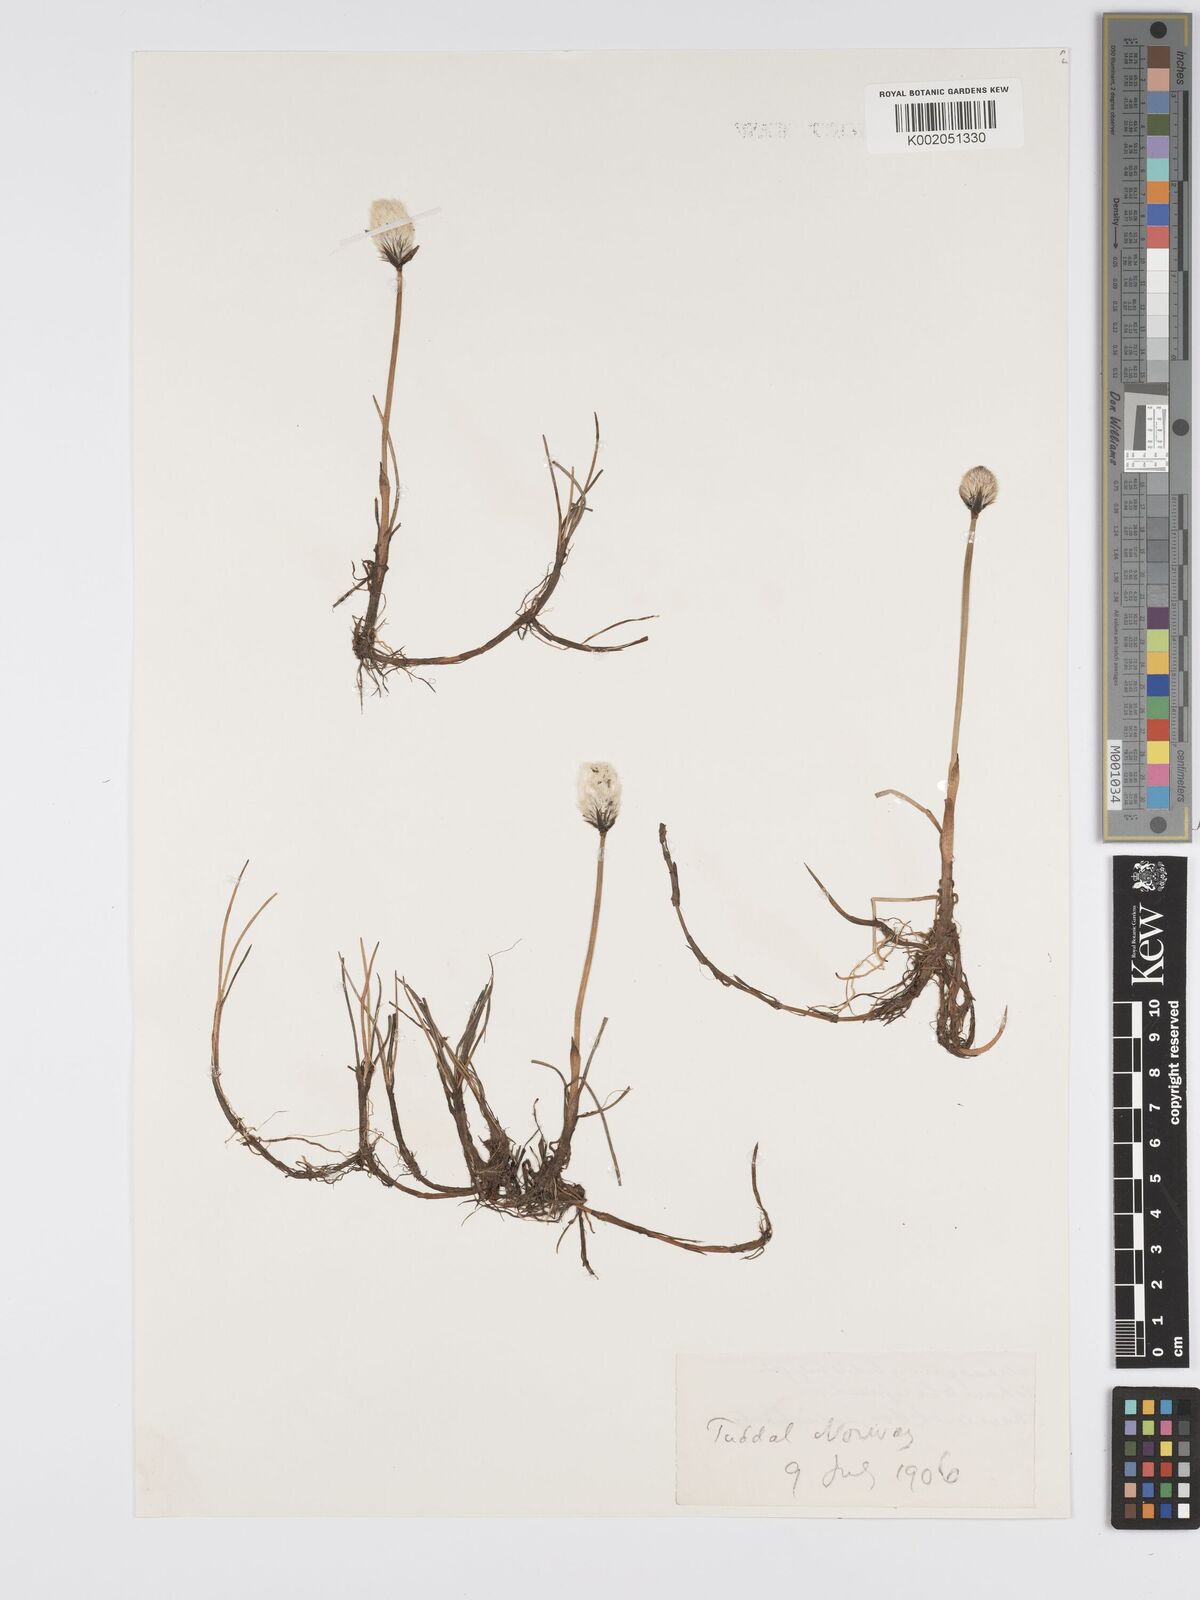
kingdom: Plantae
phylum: Tracheophyta
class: Liliopsida
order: Poales
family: Cyperaceae
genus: Eriophorum
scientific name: Eriophorum
